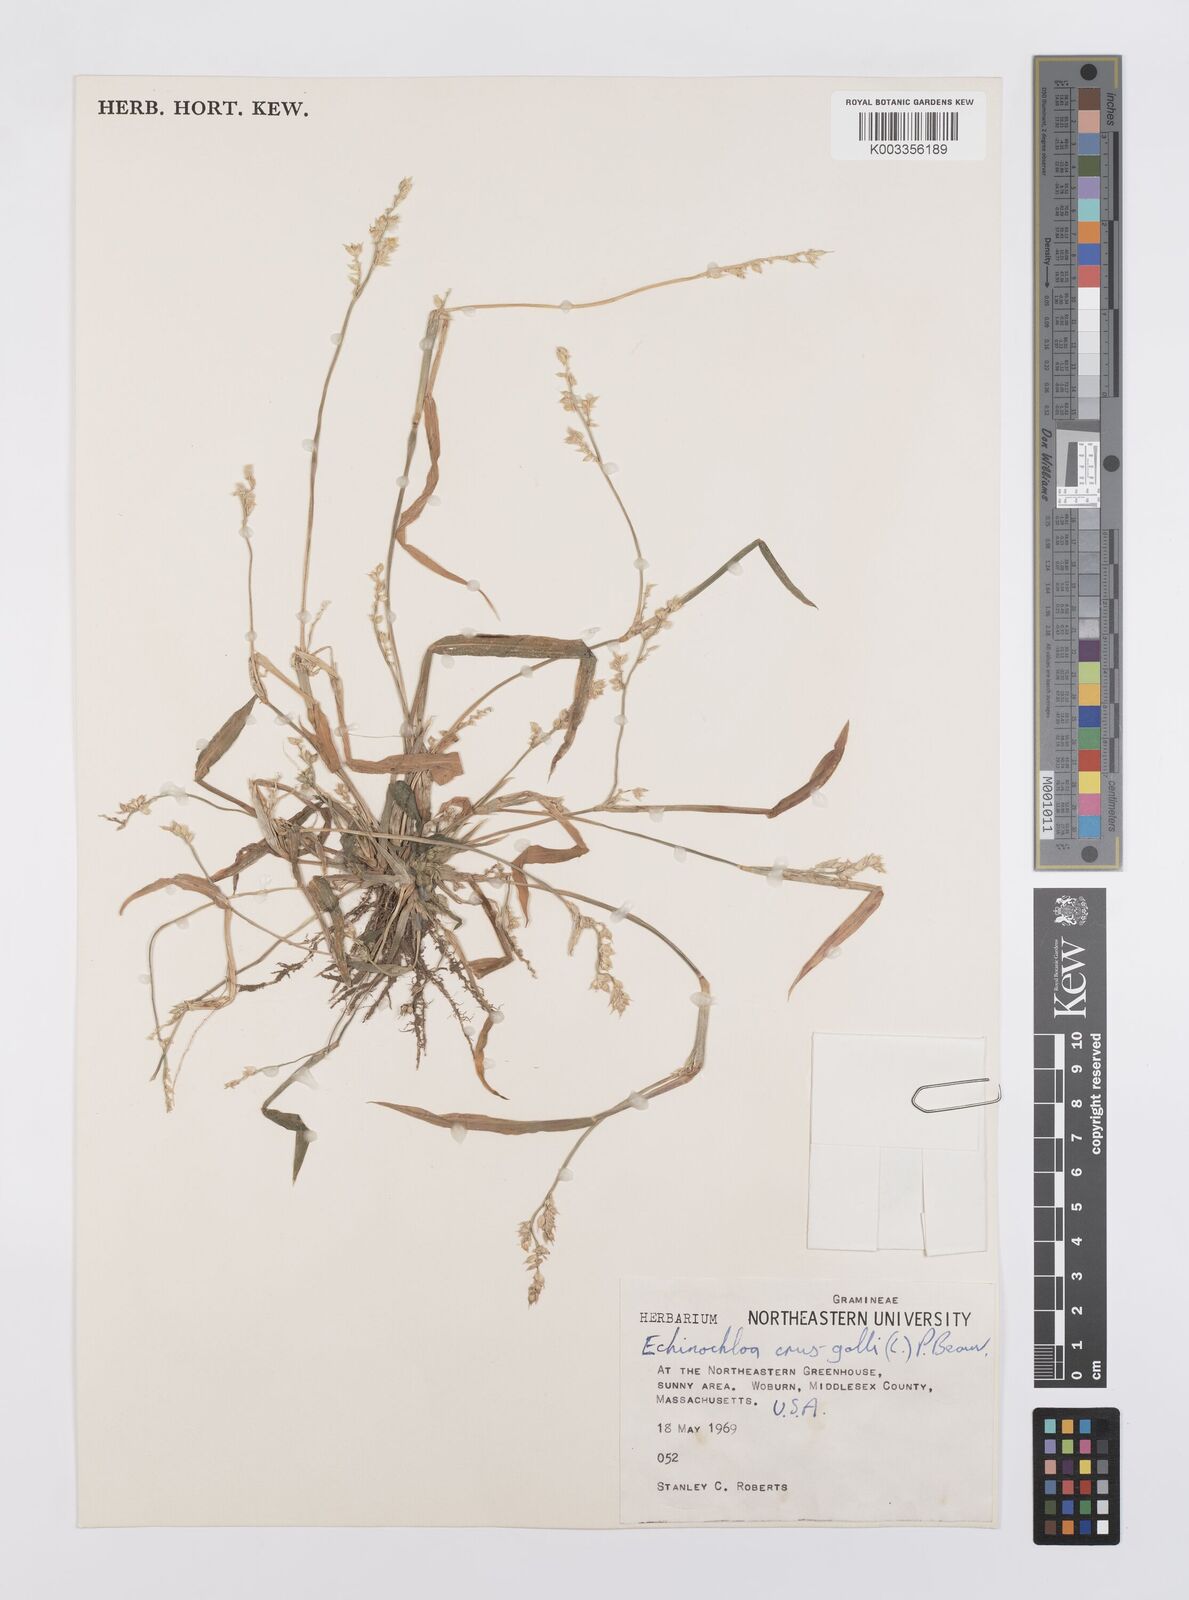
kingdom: Plantae
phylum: Tracheophyta
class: Liliopsida
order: Poales
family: Poaceae
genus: Echinochloa
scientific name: Echinochloa crus-galli
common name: Cockspur
